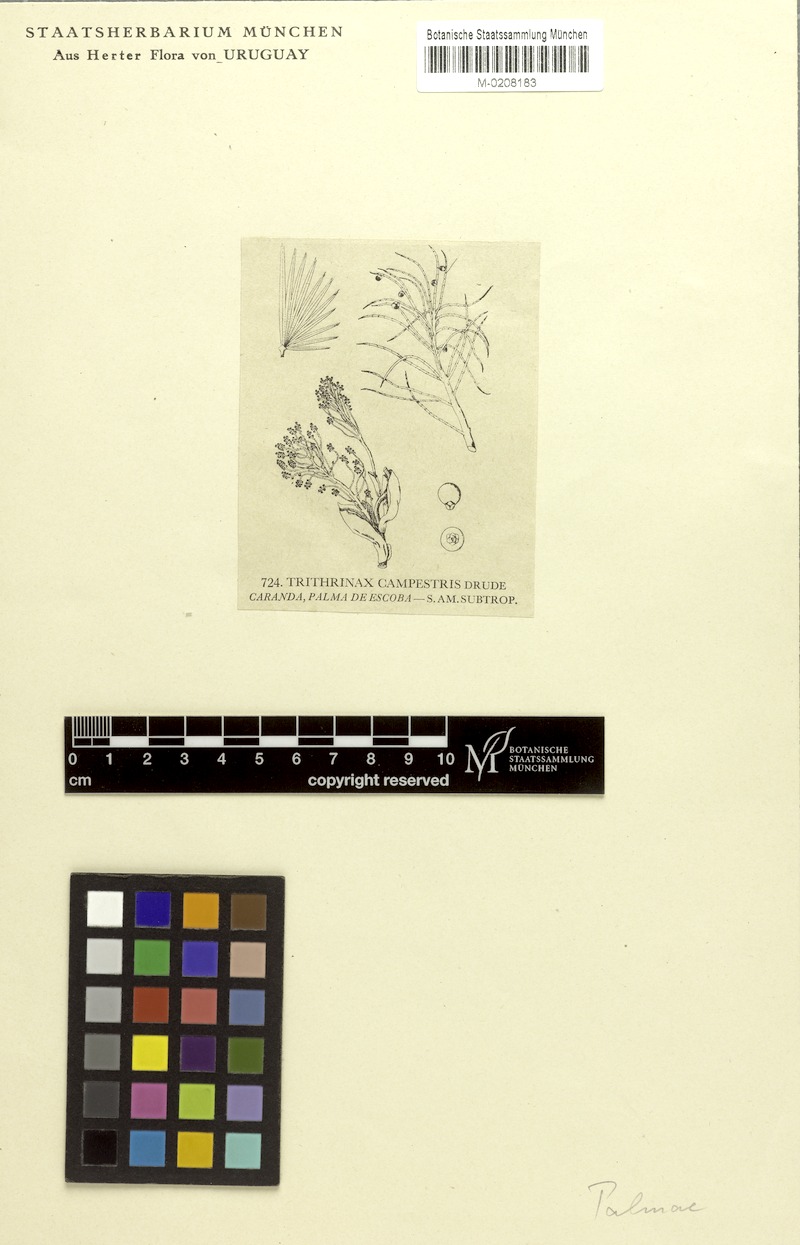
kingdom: Plantae
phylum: Tracheophyta
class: Liliopsida
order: Arecales
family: Arecaceae
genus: Trithrinax
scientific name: Trithrinax campestris
